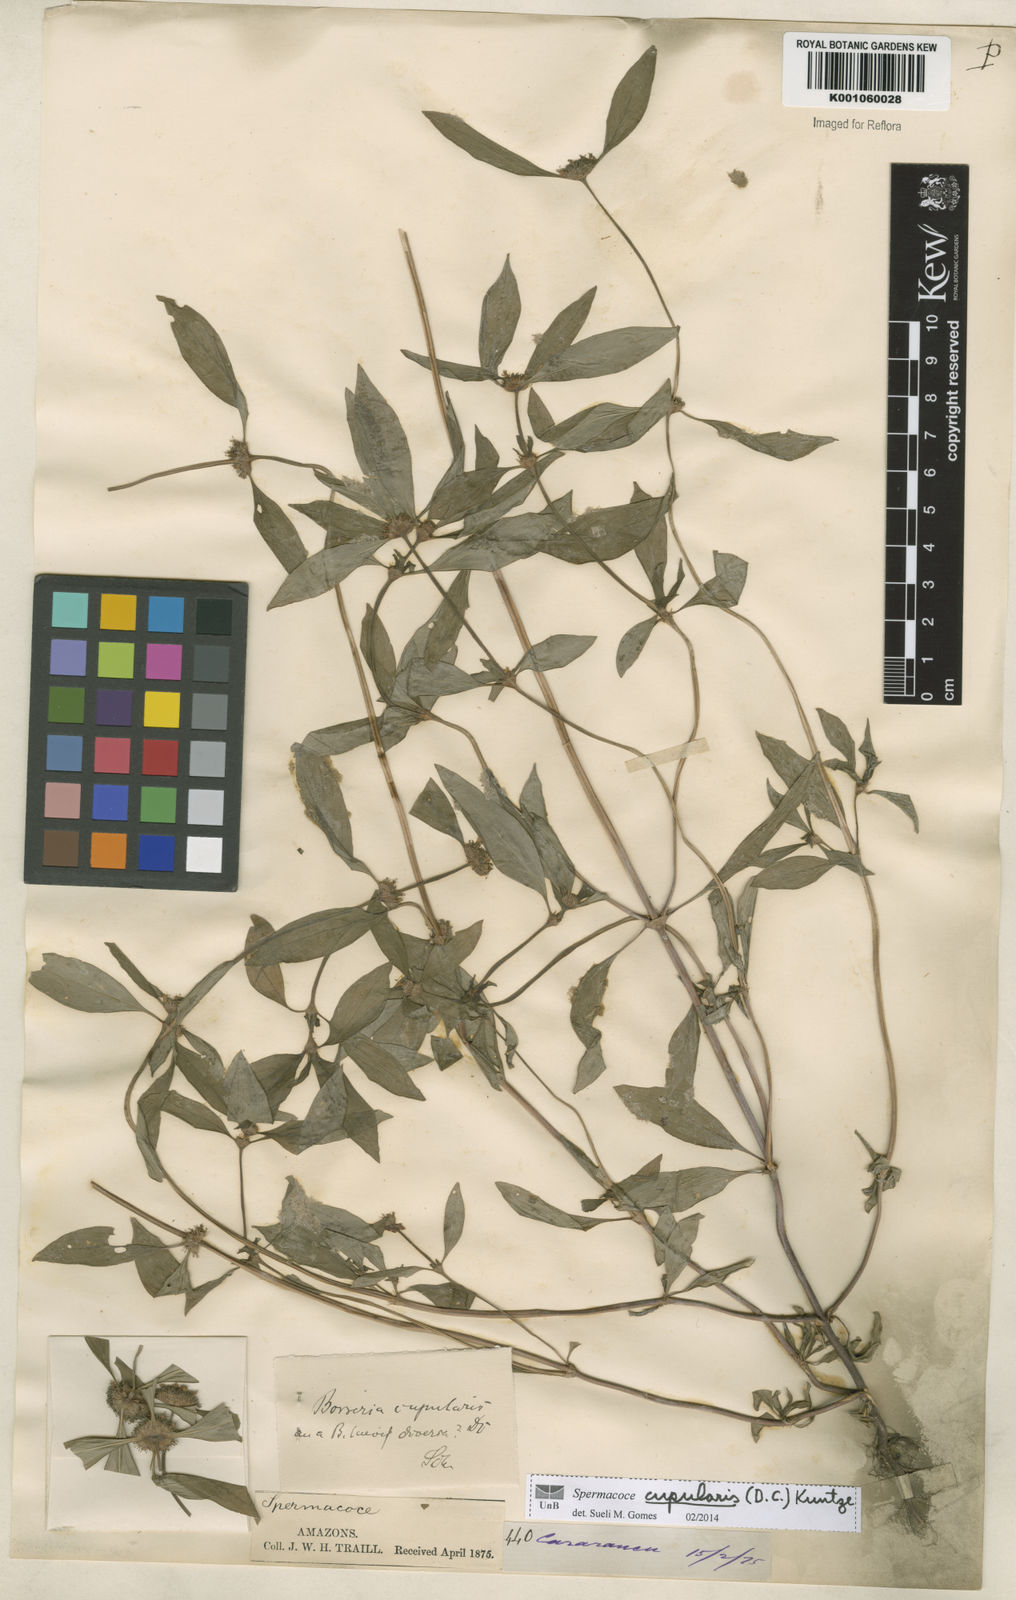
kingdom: Plantae
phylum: Tracheophyta
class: Magnoliopsida
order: Gentianales
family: Rubiaceae
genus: Spermacoce
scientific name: Spermacoce cupularis
